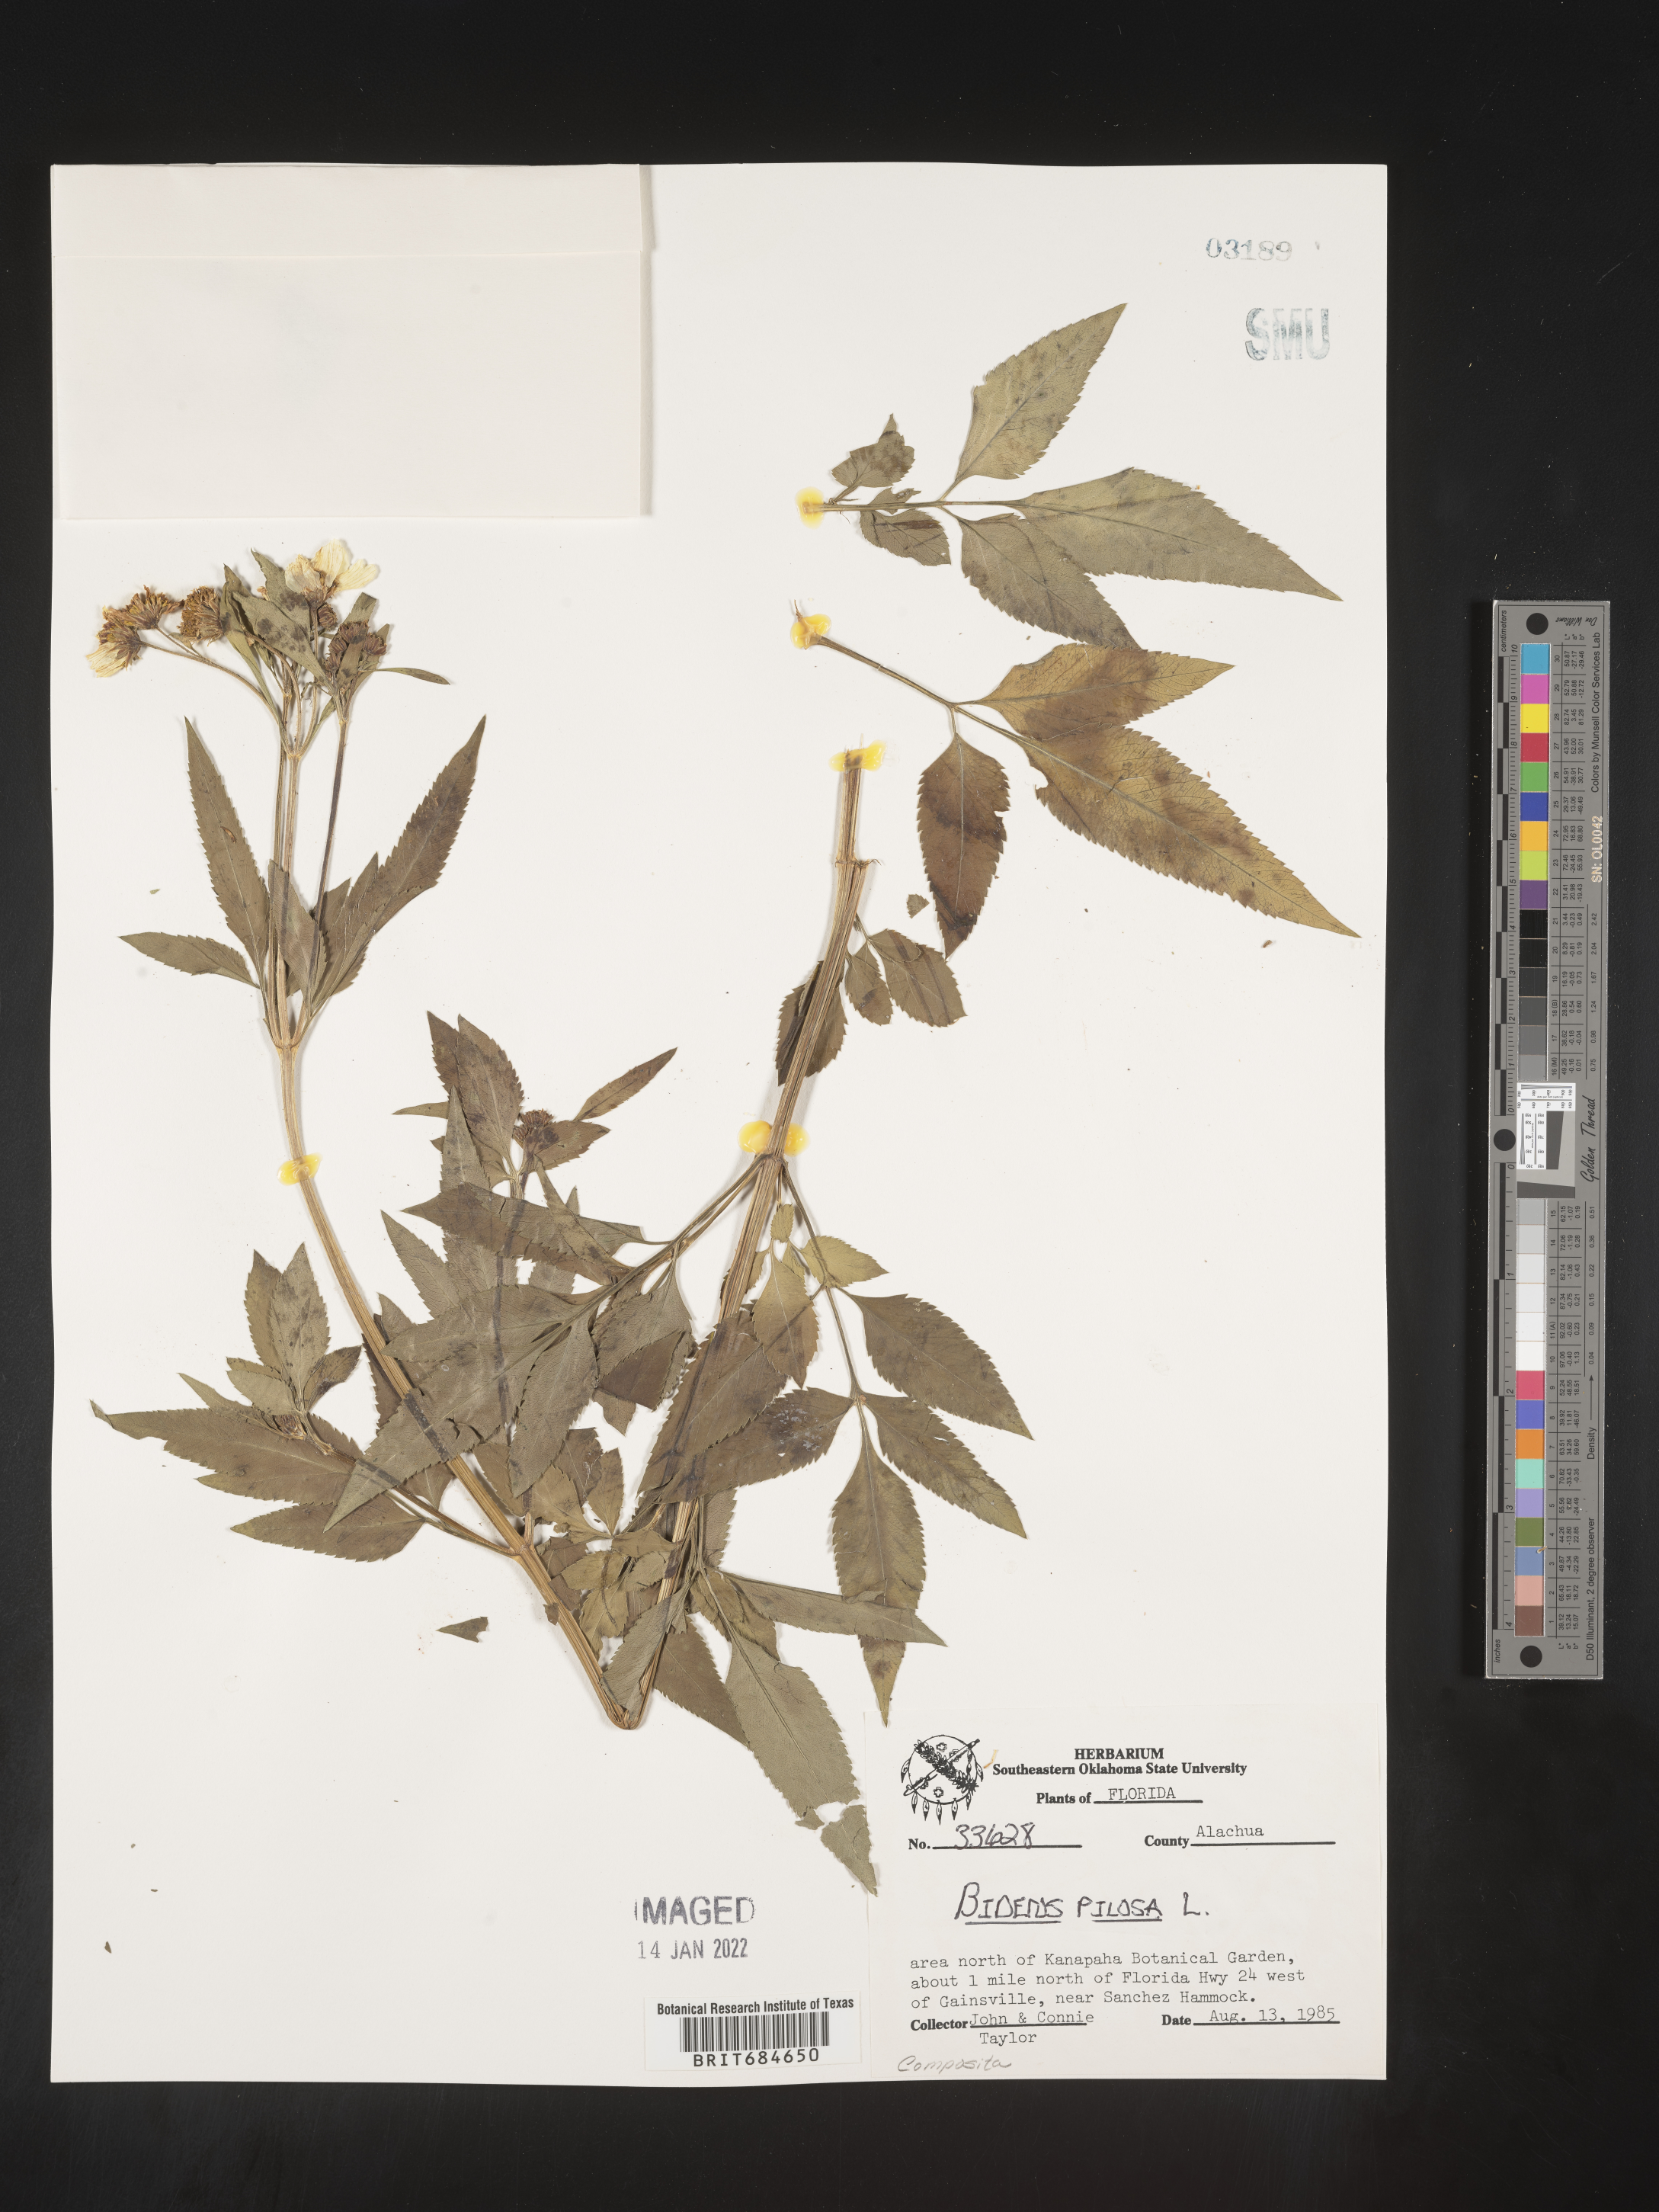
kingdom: Plantae
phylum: Tracheophyta
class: Magnoliopsida
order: Asterales
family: Asteraceae
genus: Bidens
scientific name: Bidens pilosa
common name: Black-jack
